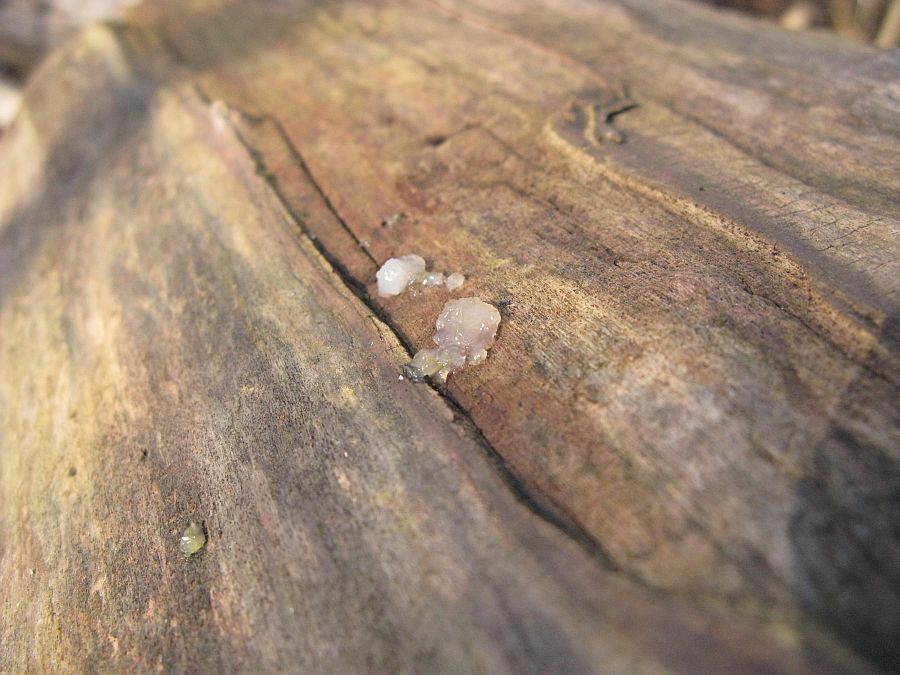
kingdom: Fungi
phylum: Basidiomycota
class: Agaricomycetes
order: Auriculariales
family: Hyaloriaceae
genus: Myxarium
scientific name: Myxarium nucleatum
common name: klar bævretop
